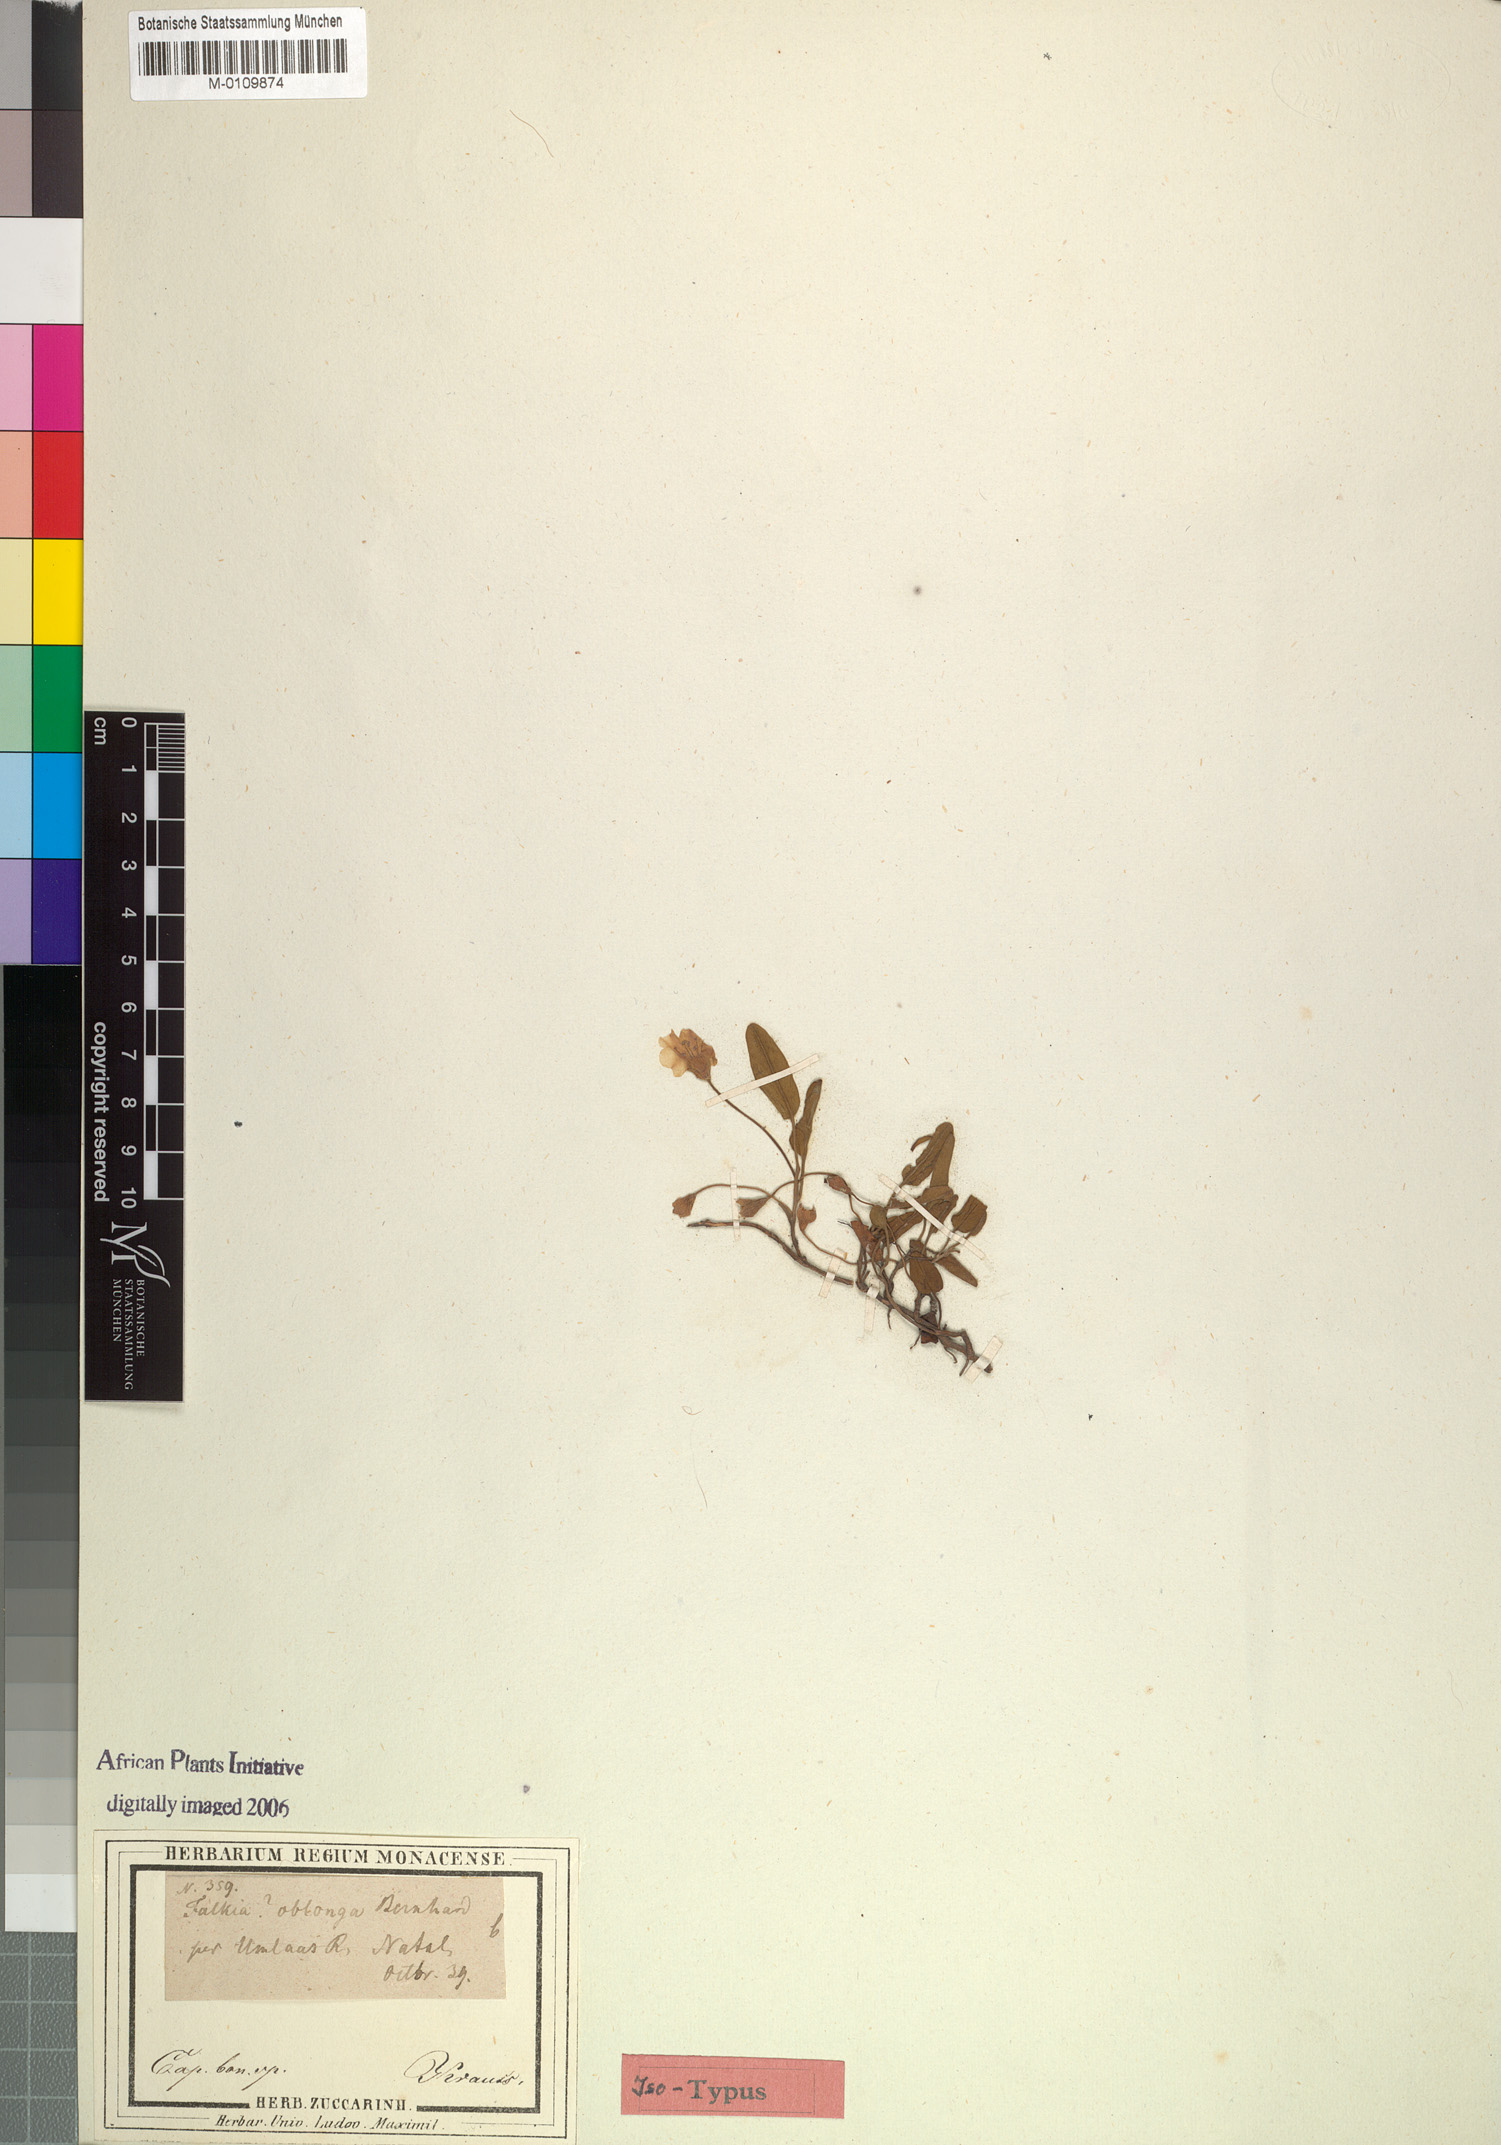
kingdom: Plantae
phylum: Tracheophyta
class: Magnoliopsida
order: Solanales
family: Convolvulaceae
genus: Falkia
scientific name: Falkia oblonga
